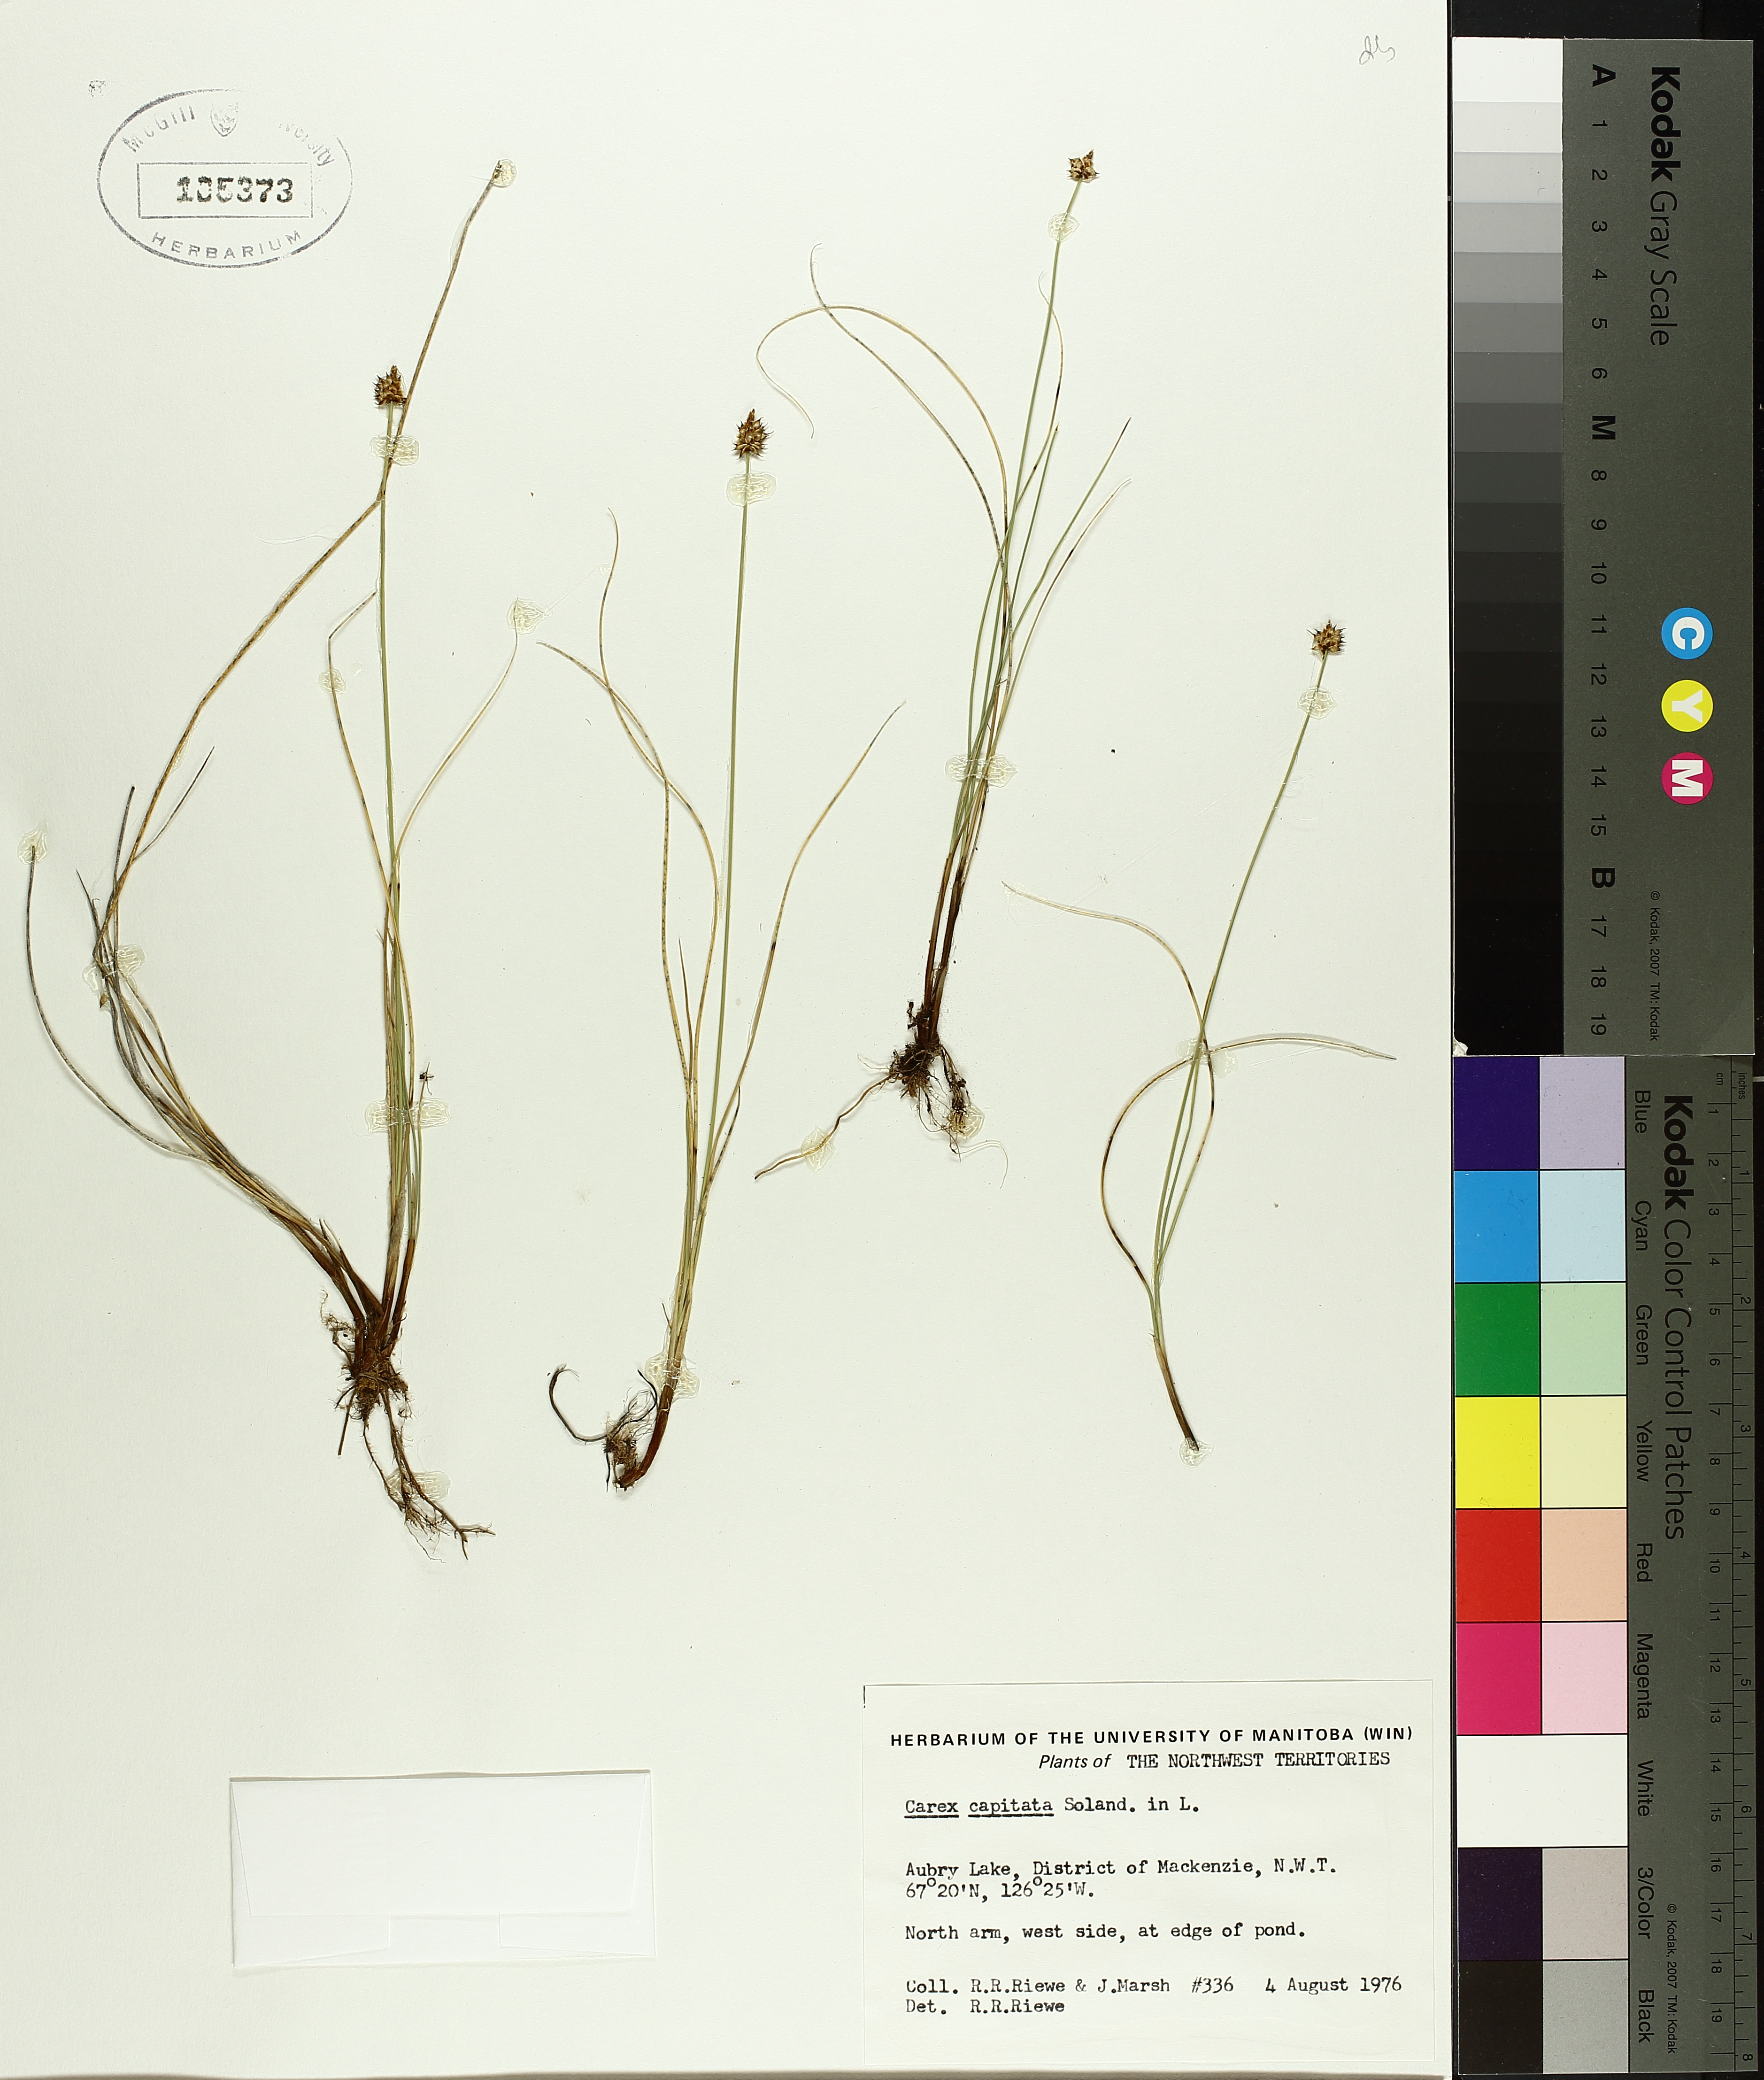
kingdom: Plantae
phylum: Tracheophyta
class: Liliopsida
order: Poales
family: Cyperaceae
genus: Carex
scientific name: Carex capitata
